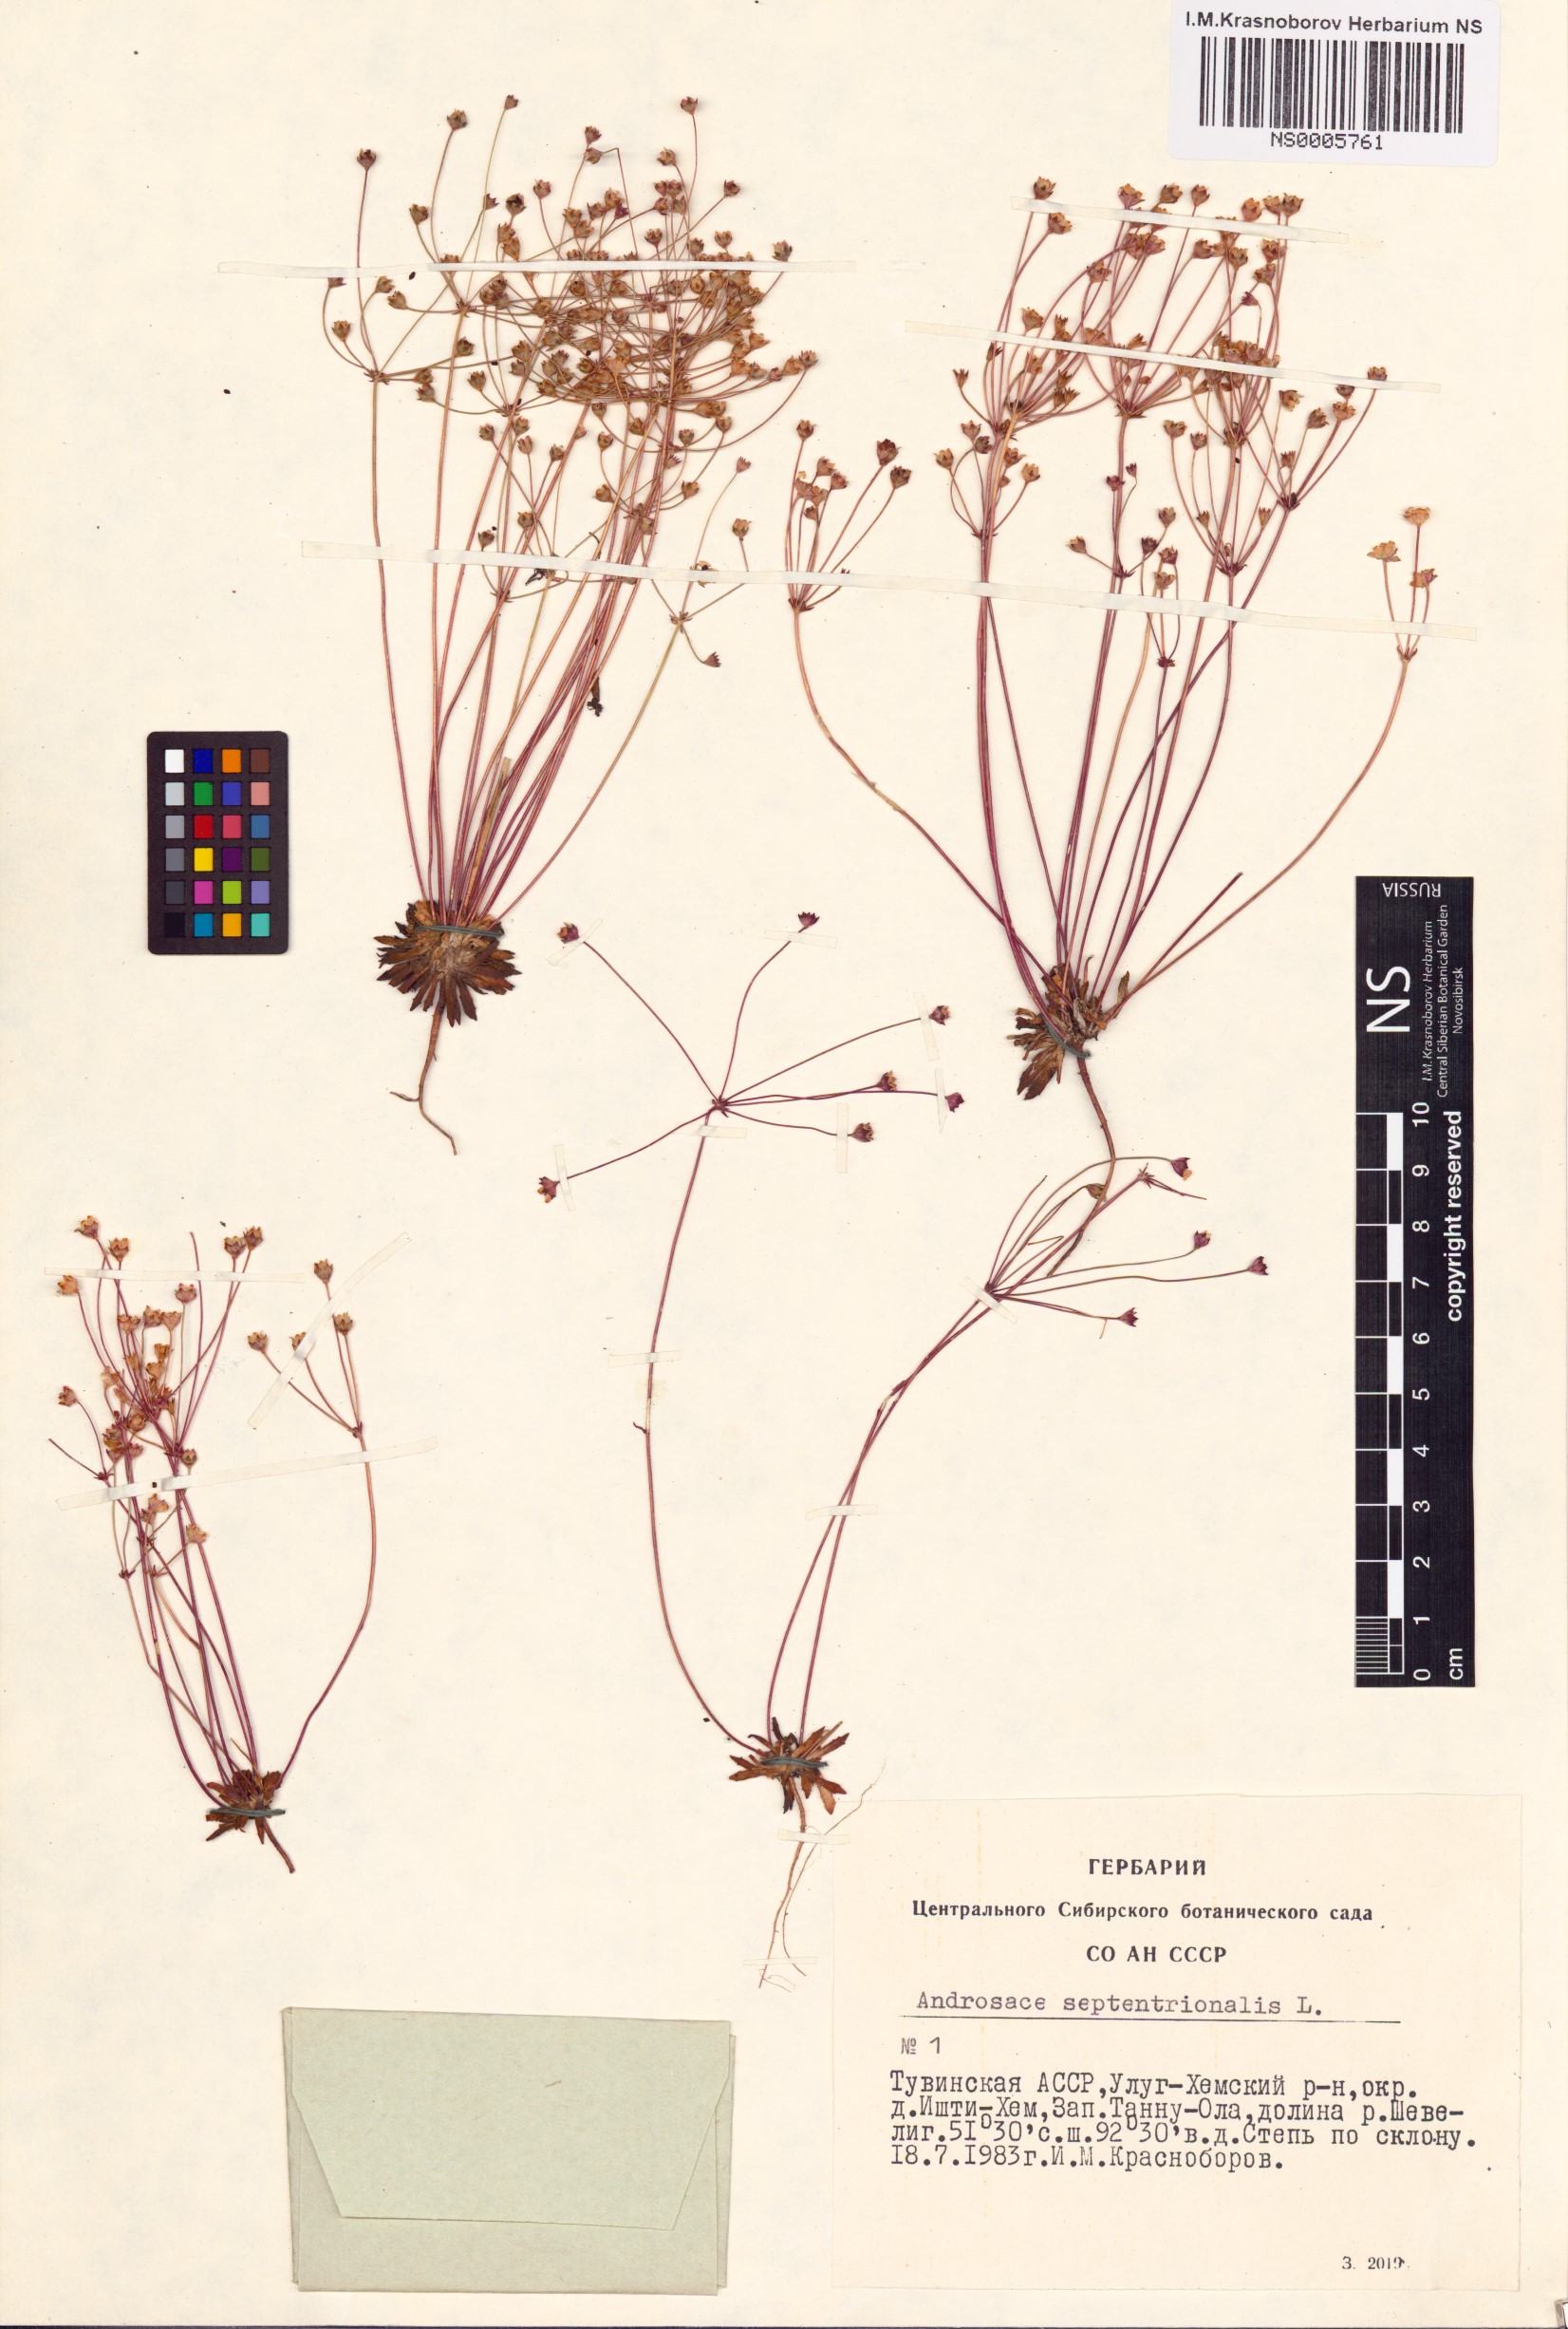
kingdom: Plantae
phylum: Tracheophyta
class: Magnoliopsida
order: Ericales
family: Primulaceae
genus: Androsace
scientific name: Androsace septentrionalis
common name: Hairy northern fairy-candelabra
